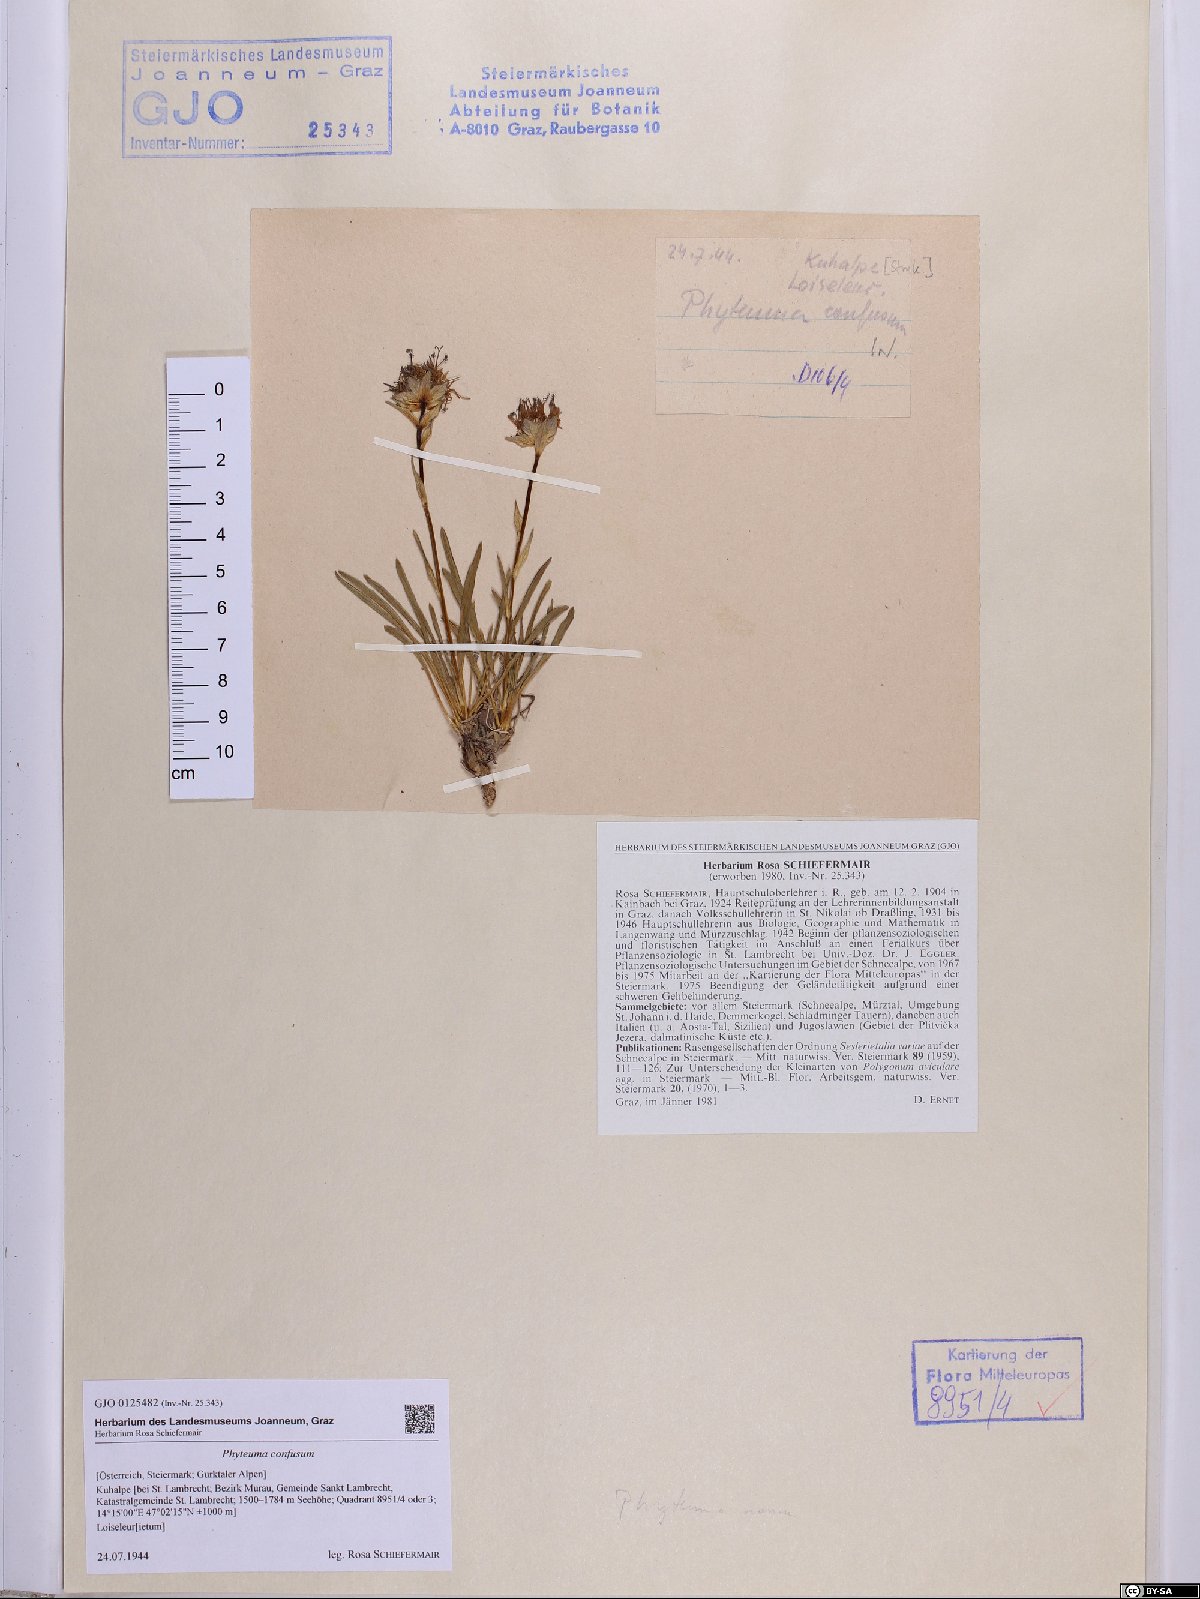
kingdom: Plantae
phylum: Tracheophyta
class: Magnoliopsida
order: Asterales
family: Campanulaceae
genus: Phyteuma
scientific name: Phyteuma confusum
